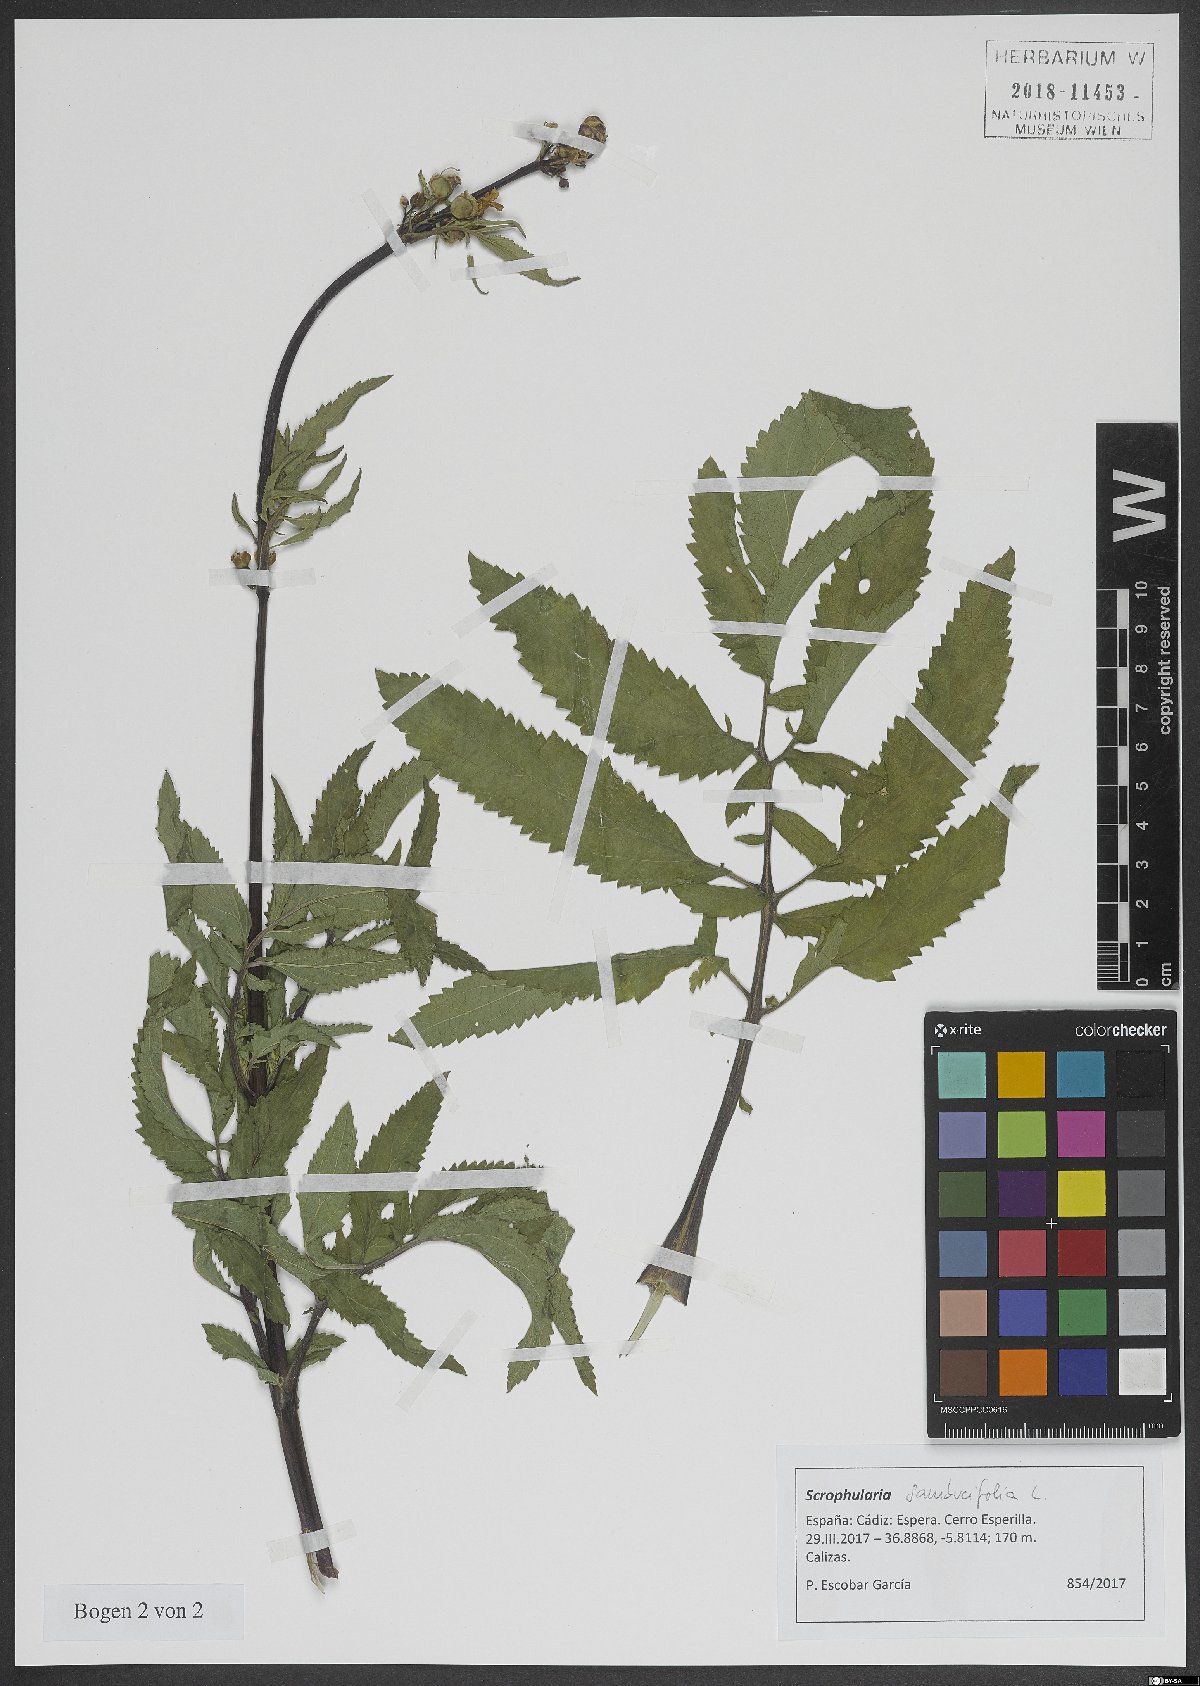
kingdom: Plantae
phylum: Tracheophyta
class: Magnoliopsida
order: Lamiales
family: Scrophulariaceae
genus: Scrophularia
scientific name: Scrophularia sambucifolia
